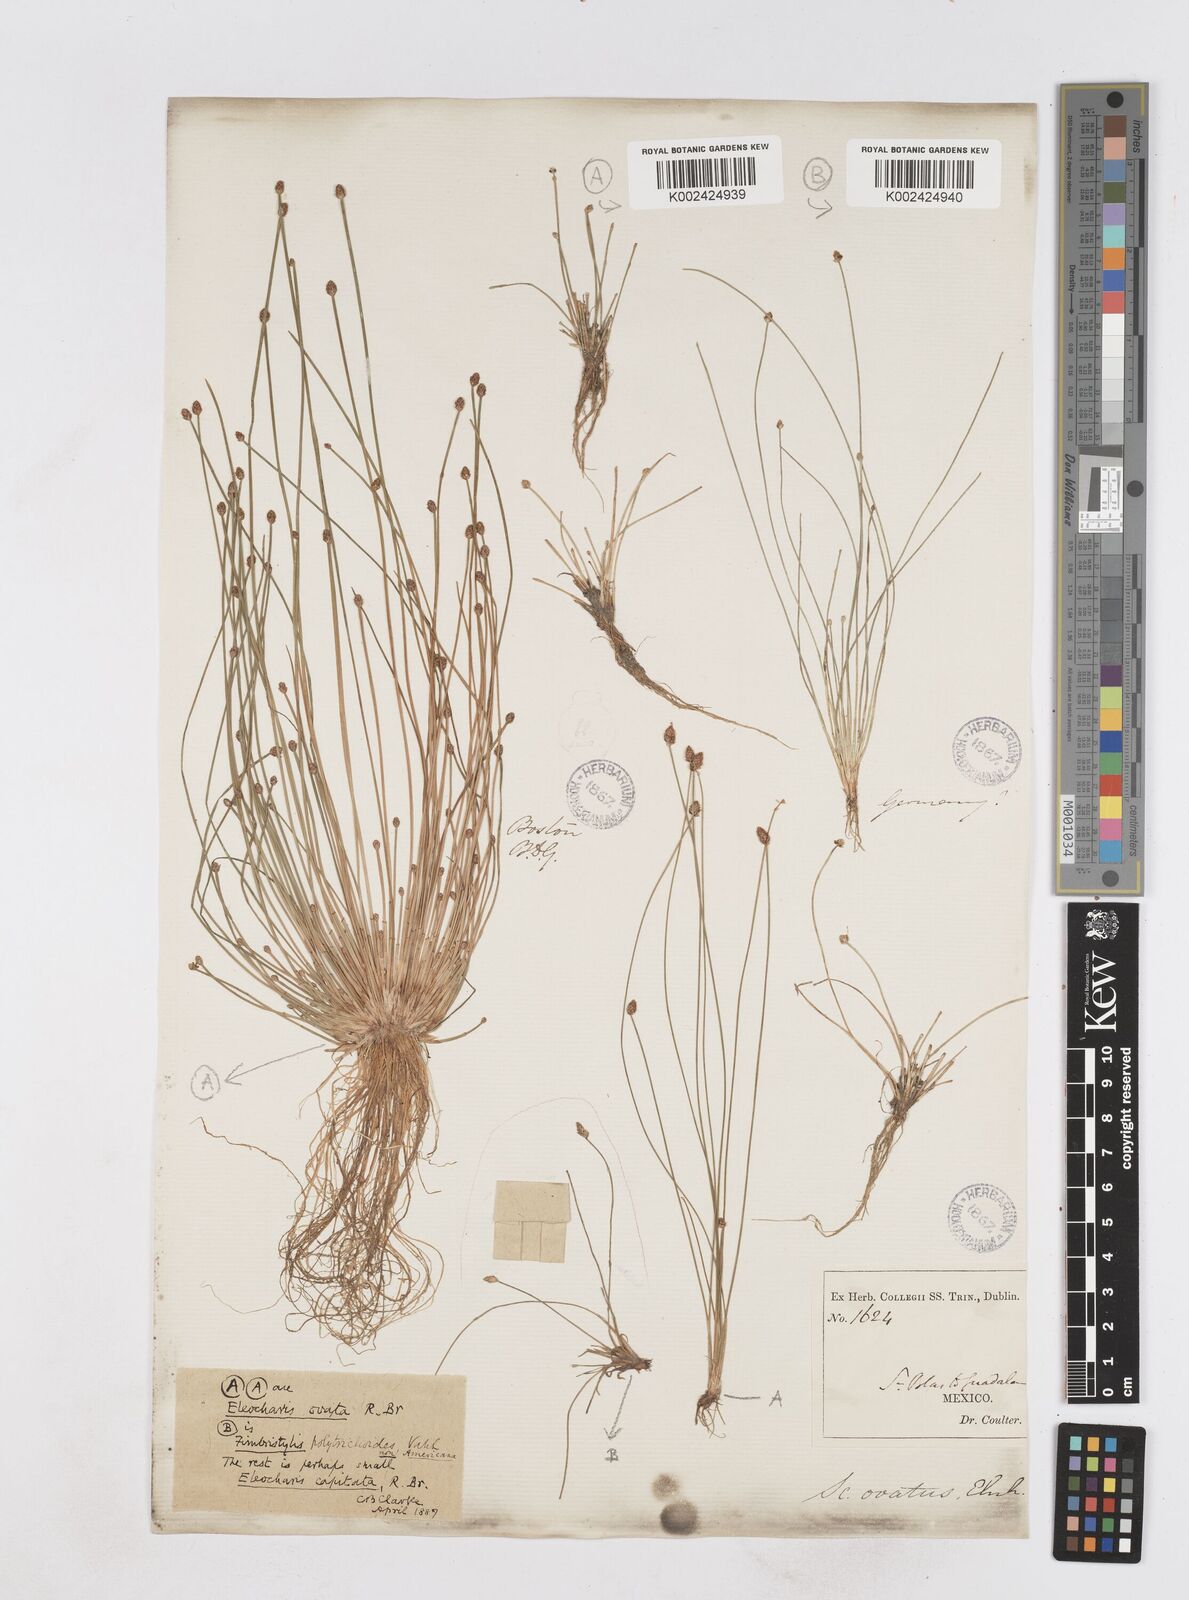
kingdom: Plantae
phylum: Tracheophyta
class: Liliopsida
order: Poales
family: Cyperaceae
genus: Eleocharis
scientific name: Eleocharis ovata
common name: Oval spike-rush
